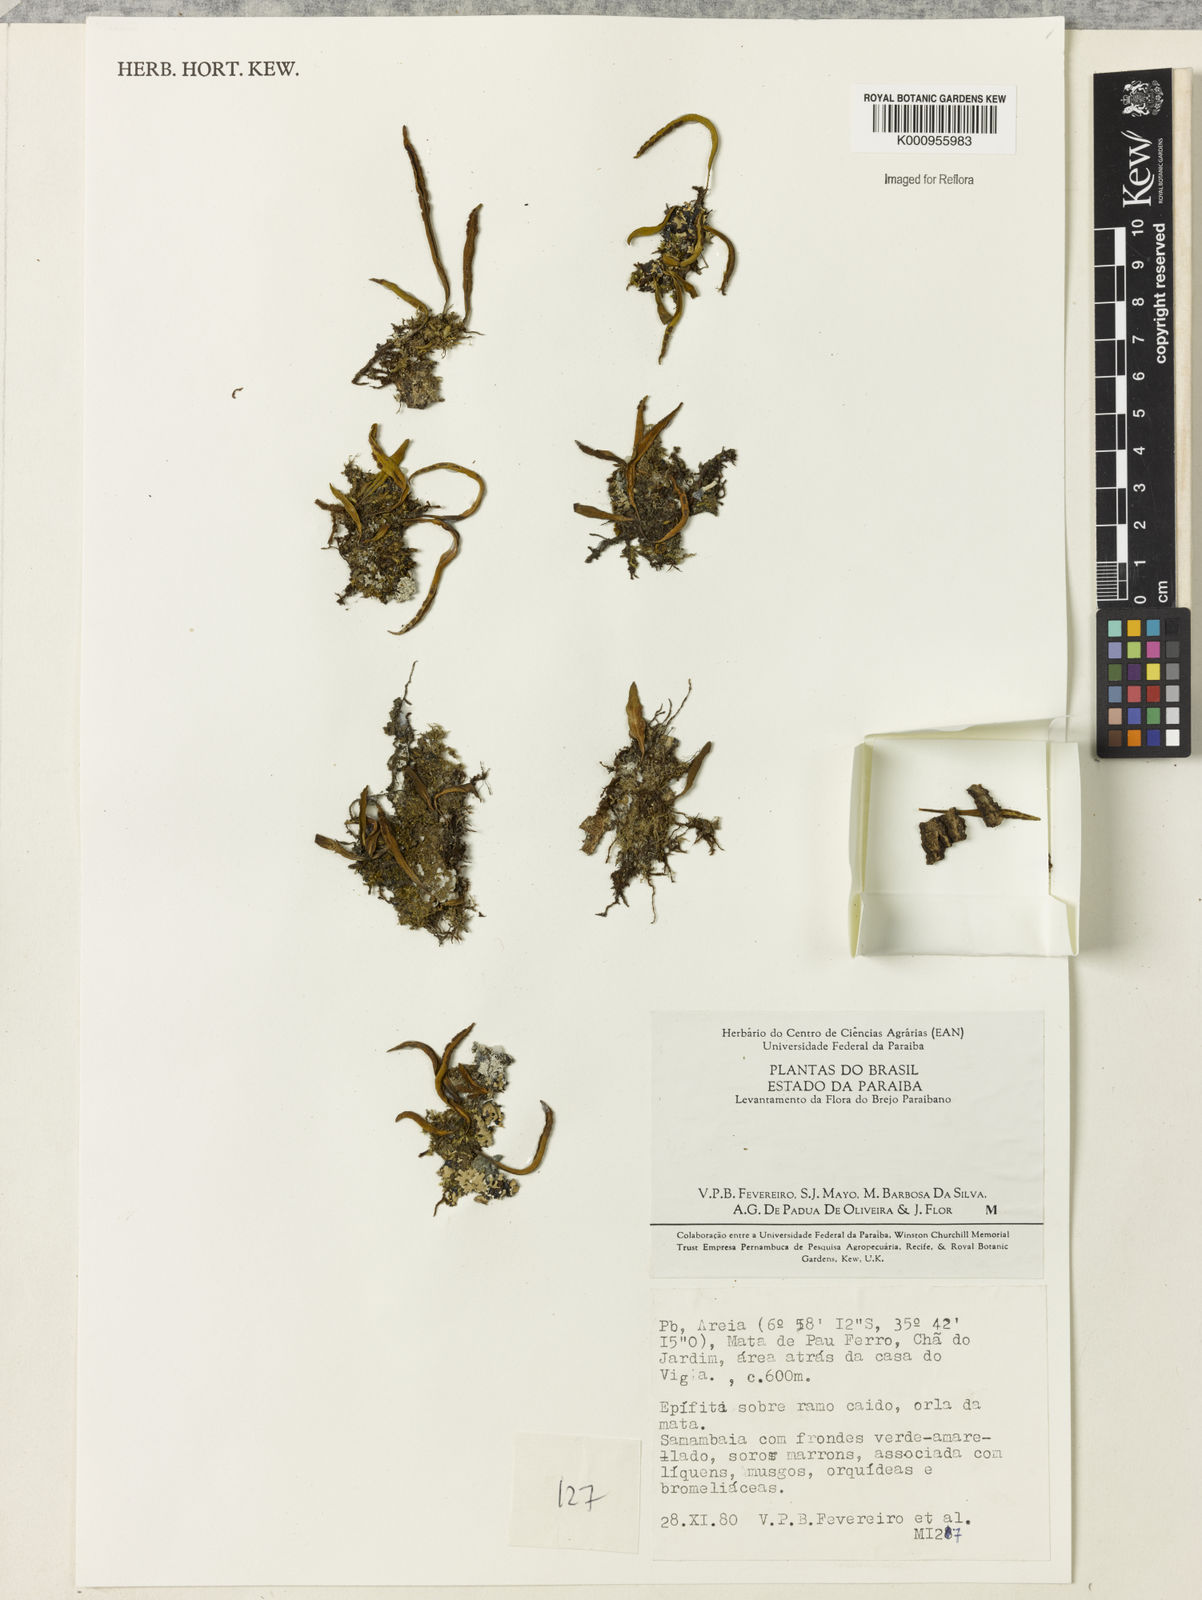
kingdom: Plantae
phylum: Tracheophyta
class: Polypodiopsida
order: Polypodiales
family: Polypodiaceae
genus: Pleopeltis
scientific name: Pleopeltis gyroflexa
